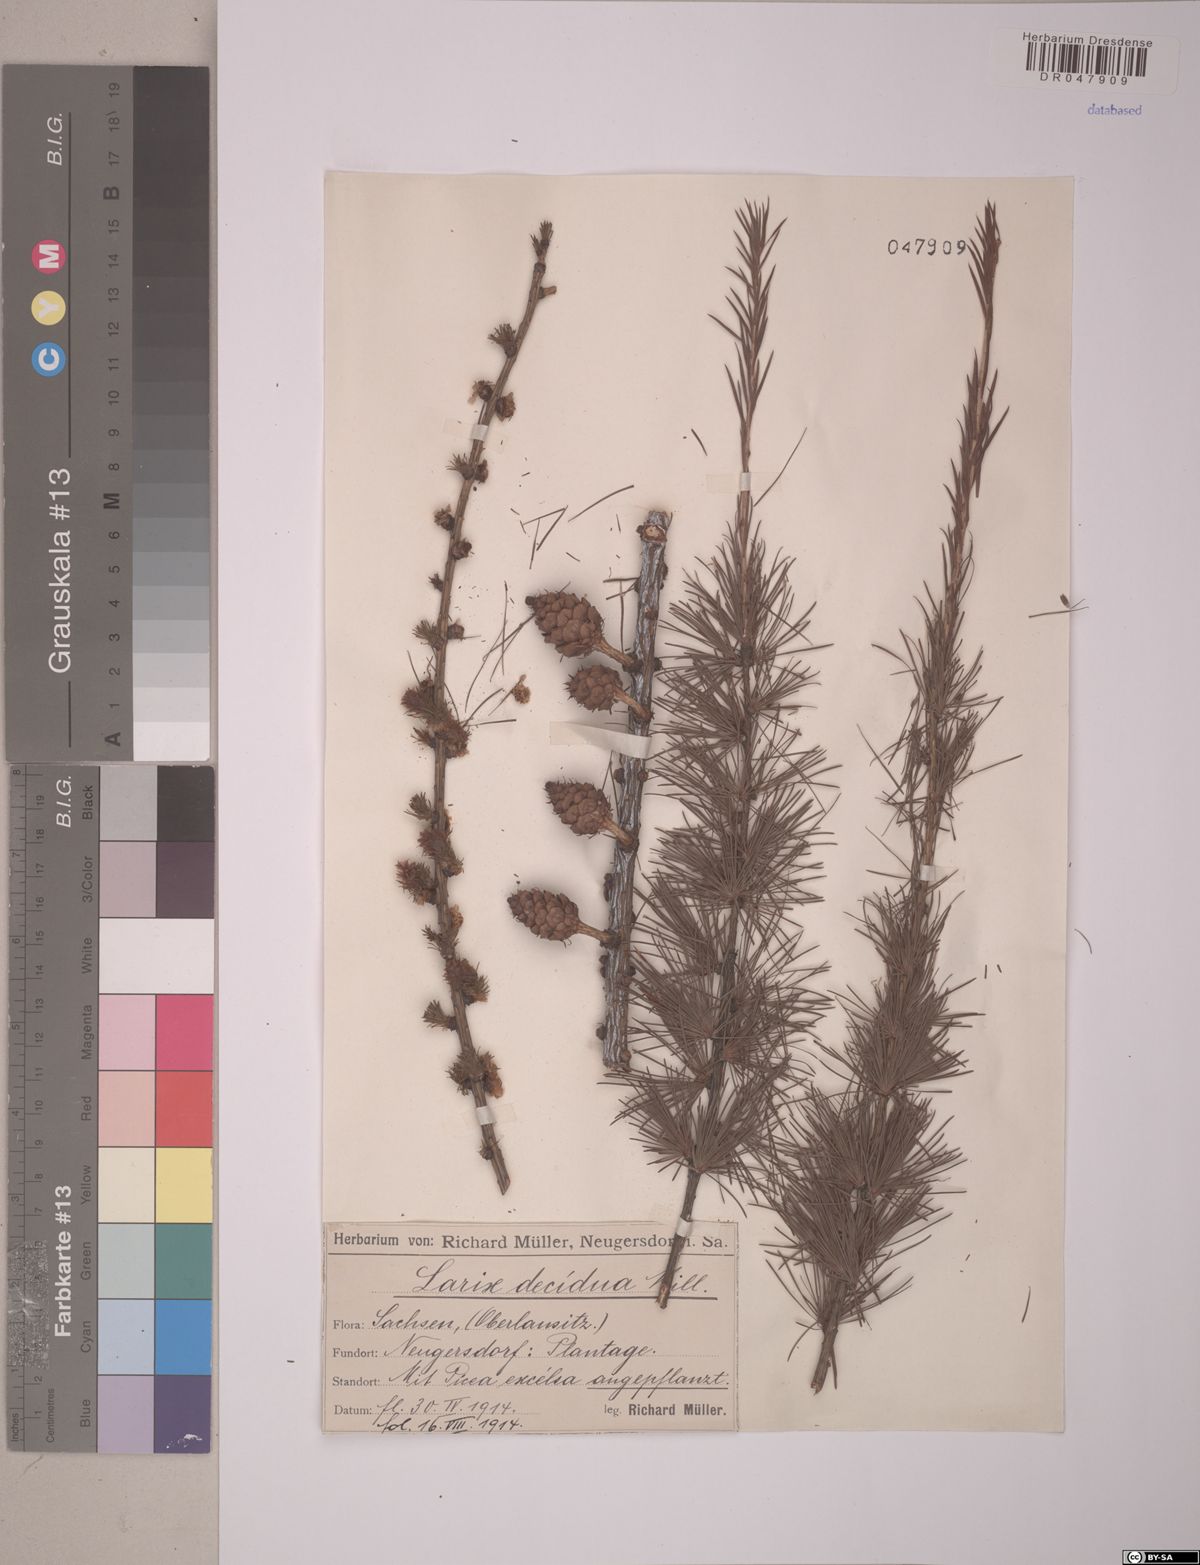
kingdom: Plantae
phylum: Tracheophyta
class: Pinopsida
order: Pinales
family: Pinaceae
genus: Larix
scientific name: Larix decidua
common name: European larch
